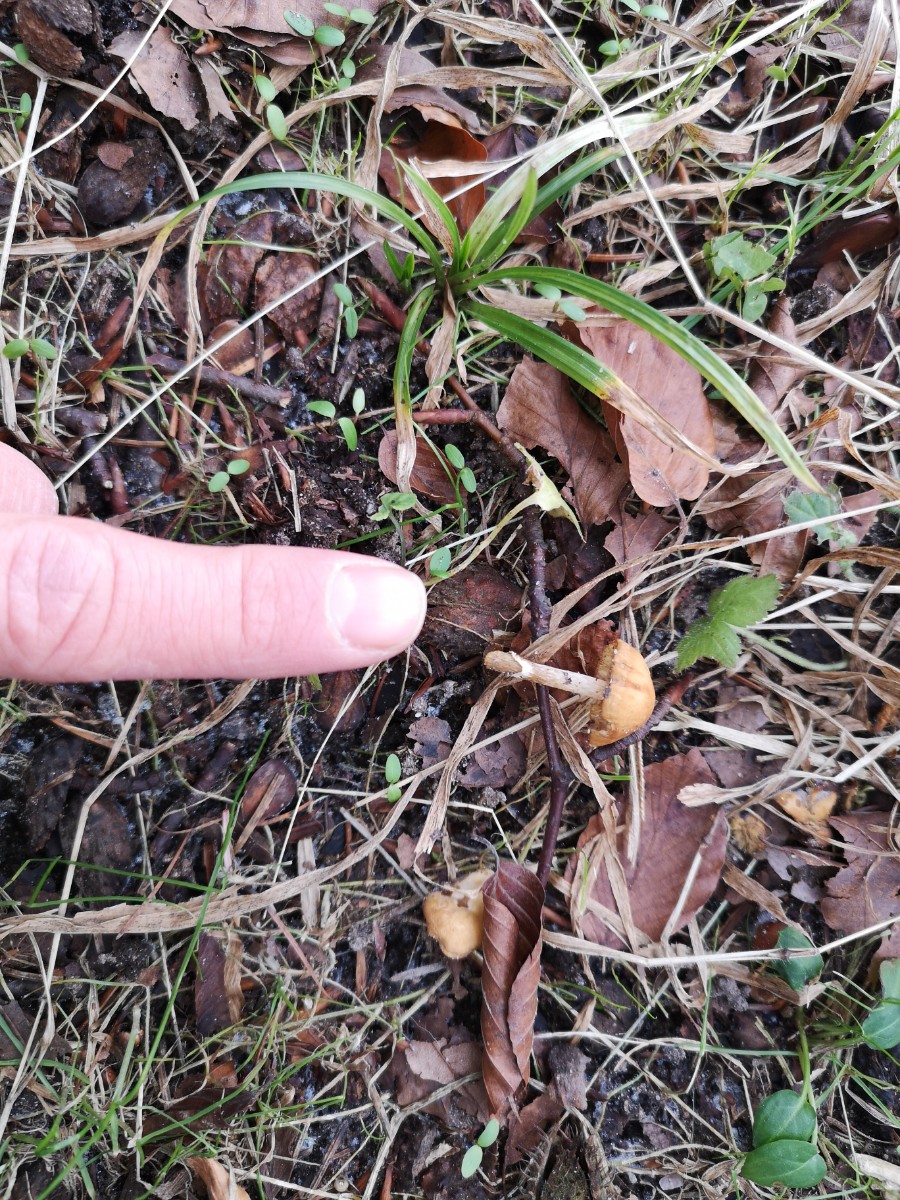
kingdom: Fungi
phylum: Basidiomycota
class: Agaricomycetes
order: Agaricales
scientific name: Agaricales
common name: champignonordenen
